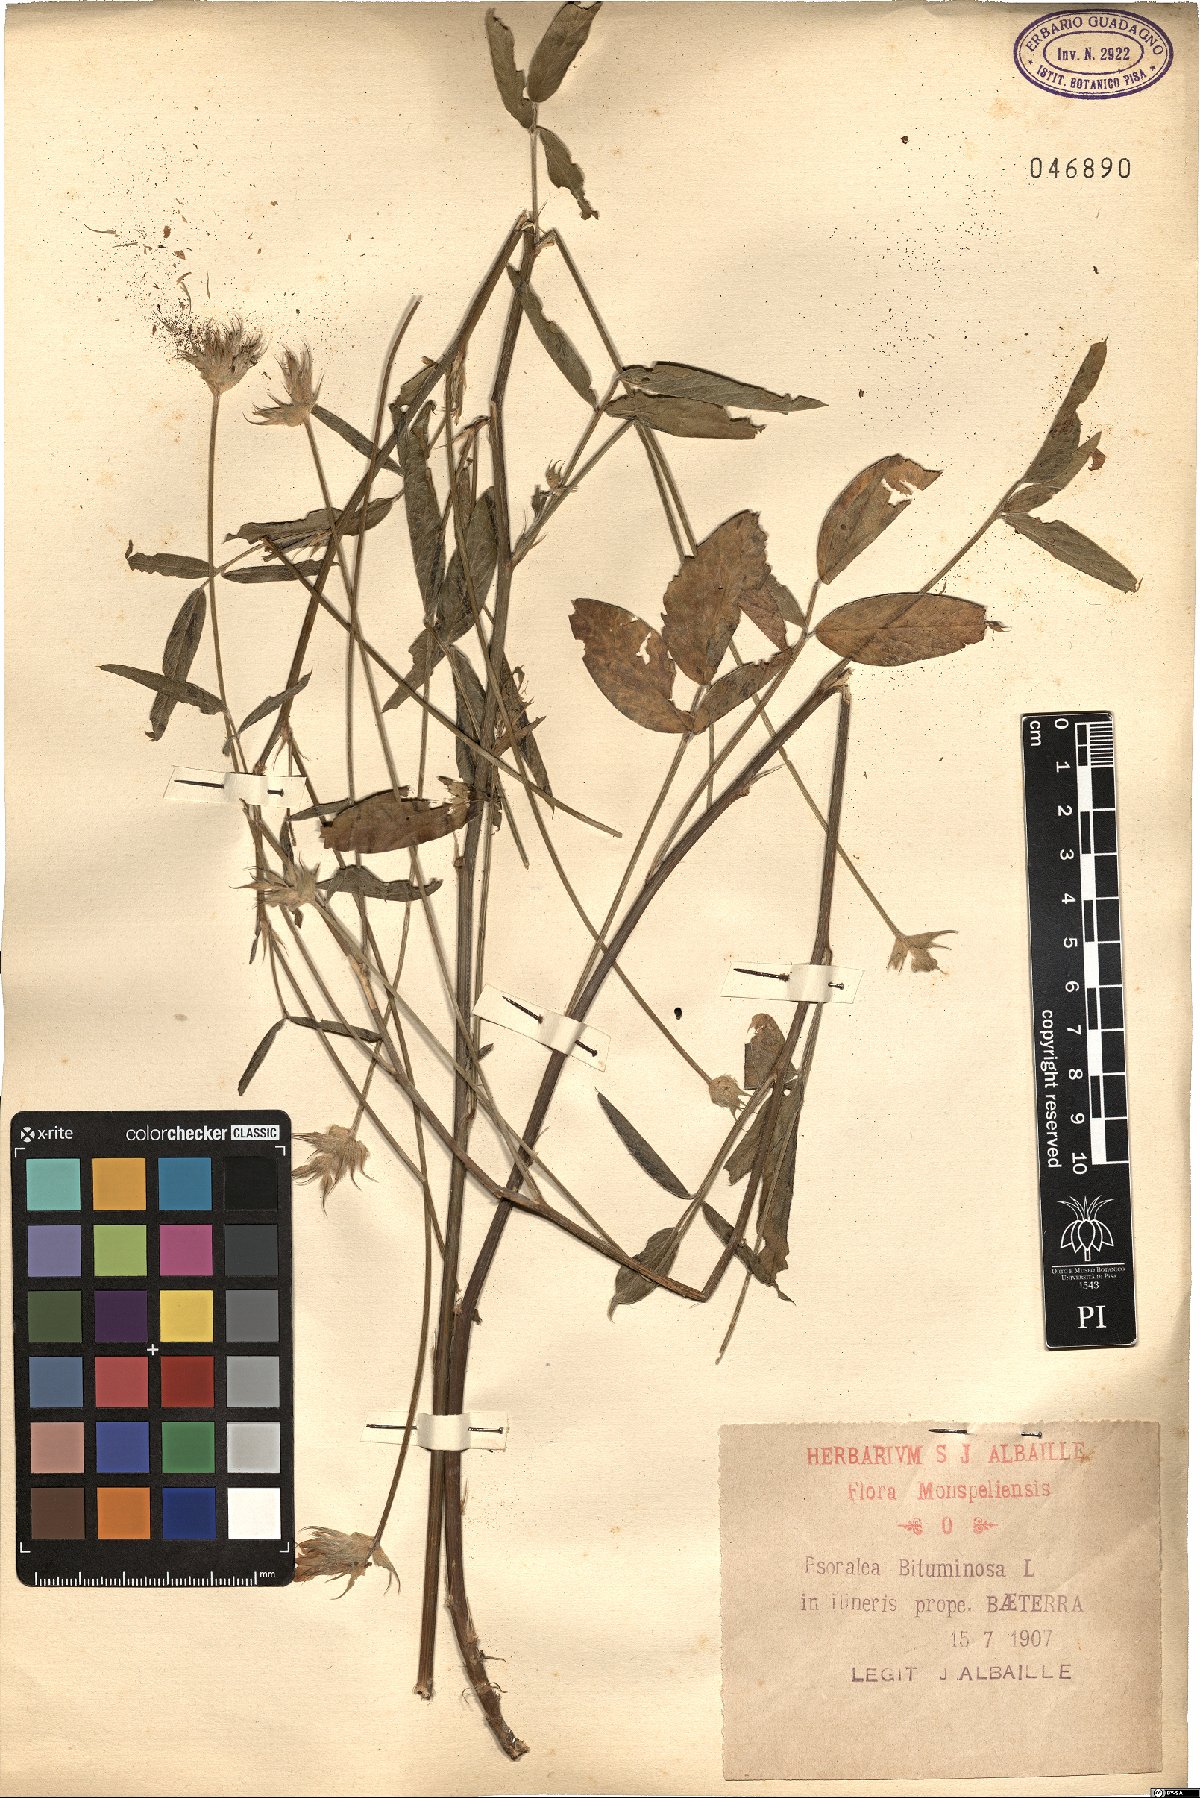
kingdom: Plantae
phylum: Tracheophyta
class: Magnoliopsida
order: Fabales
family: Fabaceae
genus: Bituminaria
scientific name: Bituminaria bituminosa
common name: Arabian pea
